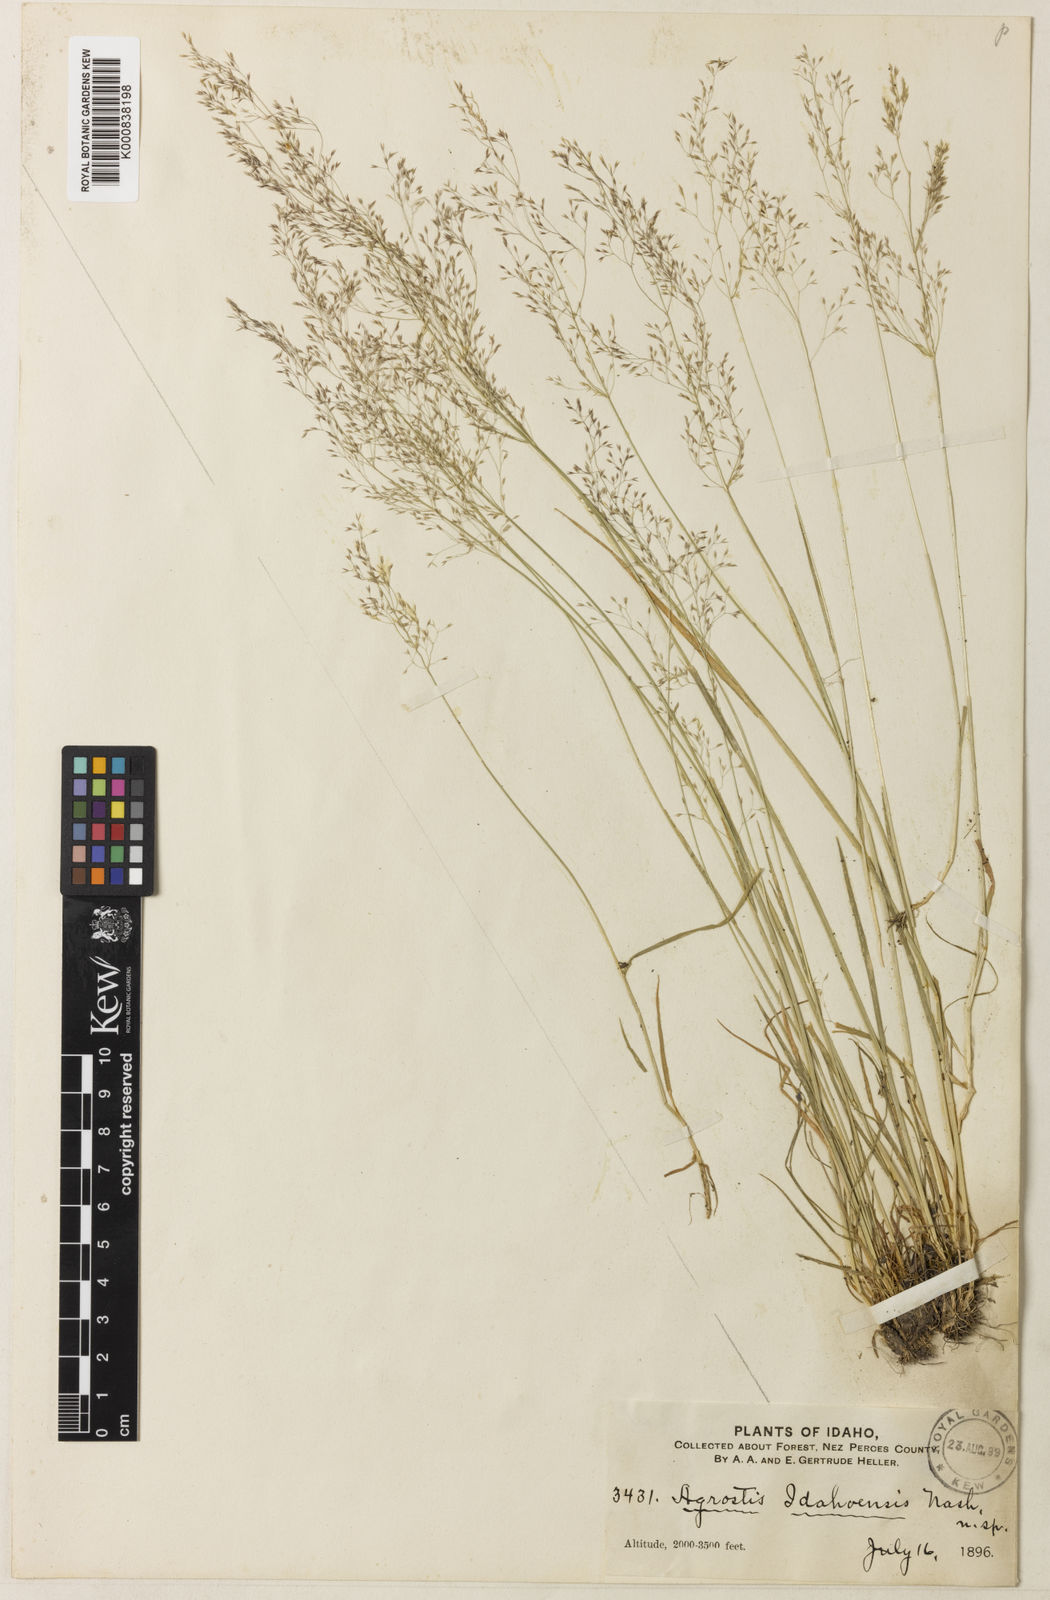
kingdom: Plantae
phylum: Tracheophyta
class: Liliopsida
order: Poales
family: Poaceae
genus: Agrostis
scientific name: Agrostis idahoensis
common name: Idaho redtop
